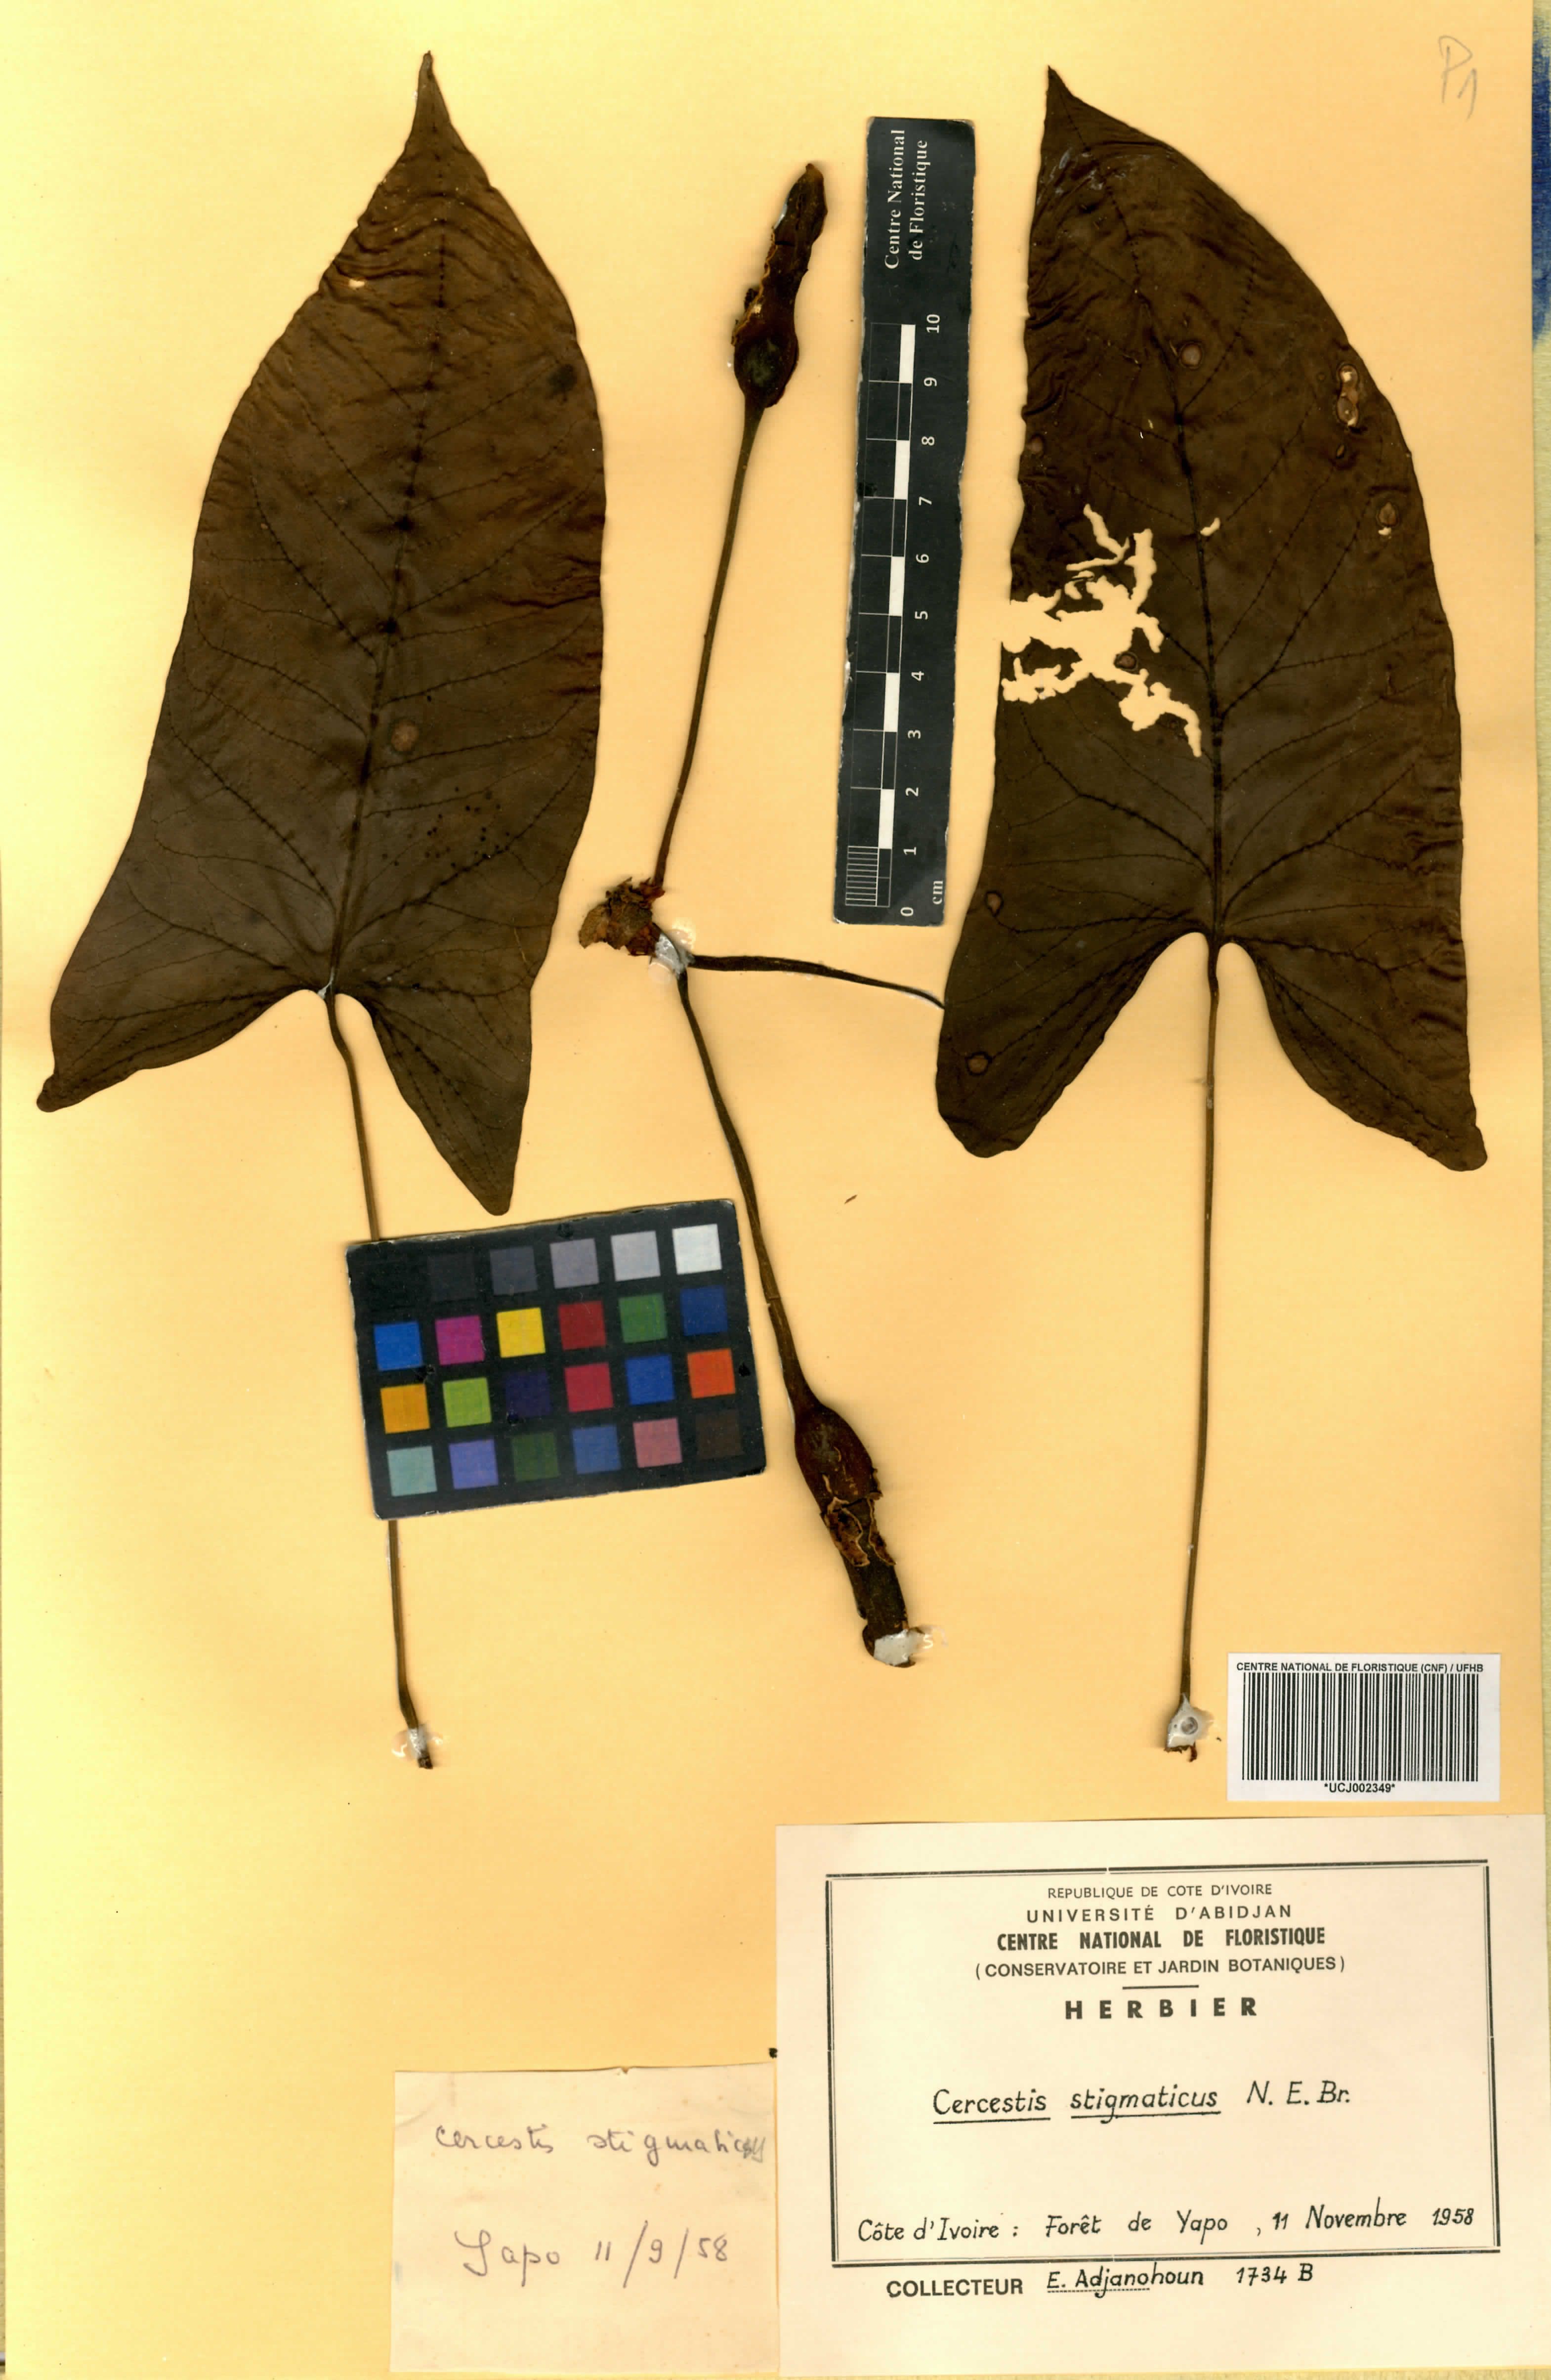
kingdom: Plantae
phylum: Tracheophyta
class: Liliopsida
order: Alismatales
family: Araceae
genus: Cercestis
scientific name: Cercestis dinklagei
